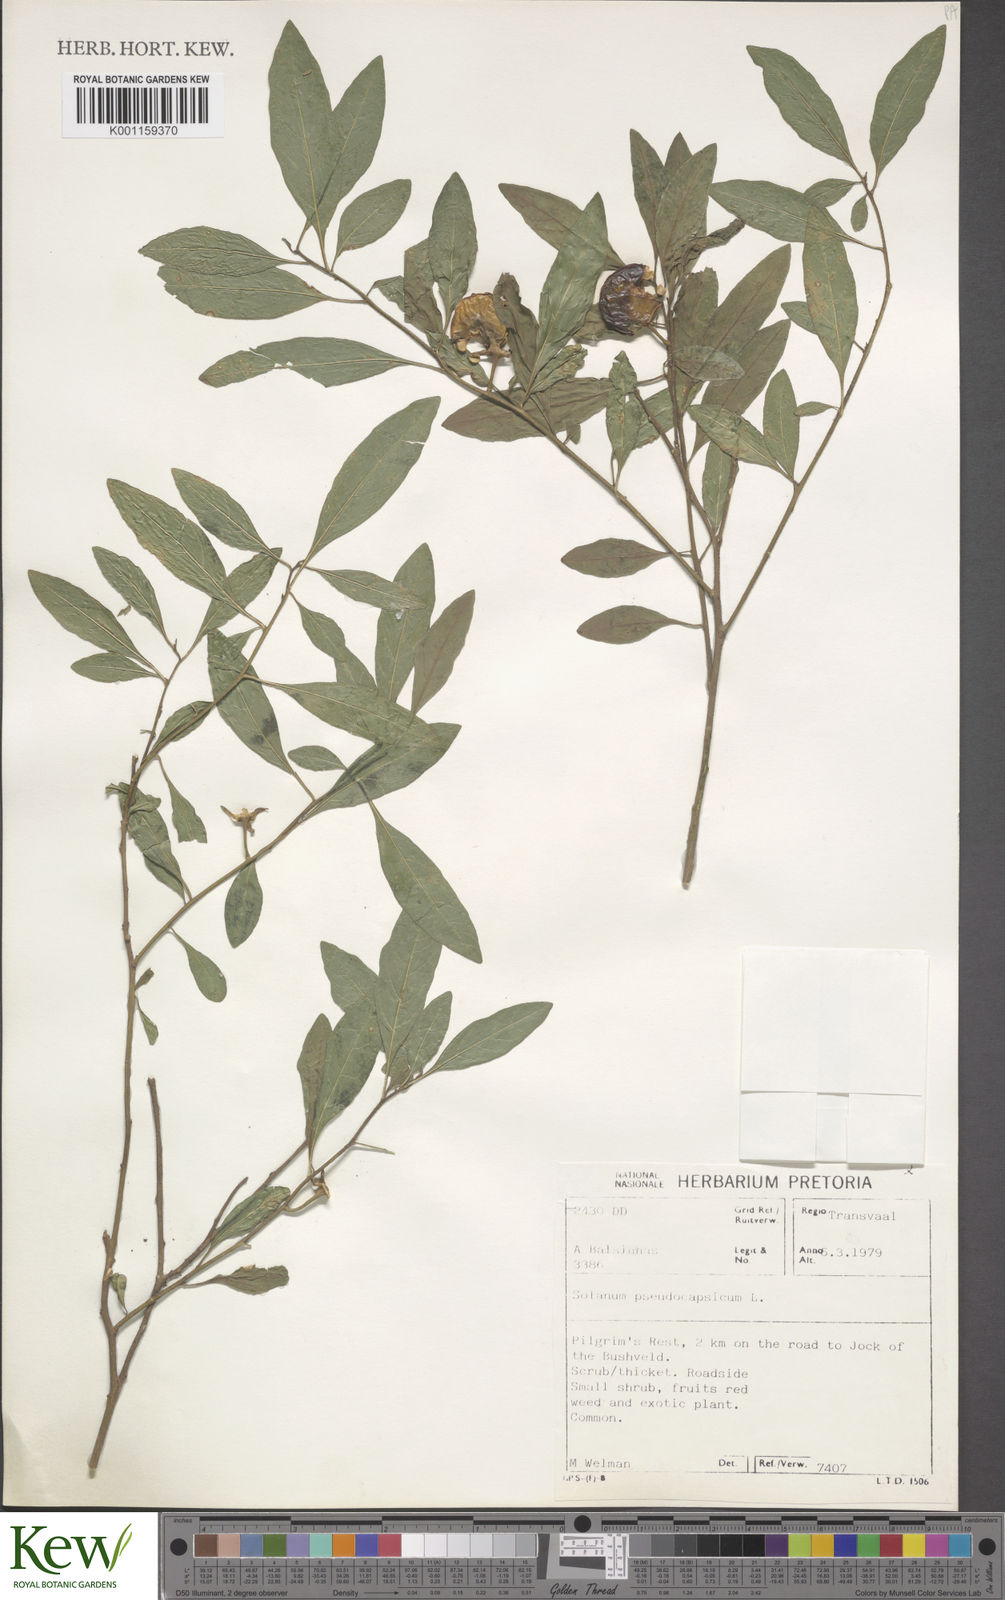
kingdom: Plantae
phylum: Tracheophyta
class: Magnoliopsida
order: Solanales
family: Solanaceae
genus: Solanum
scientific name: Solanum pseudocapsicum
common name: Jerusalem cherry
